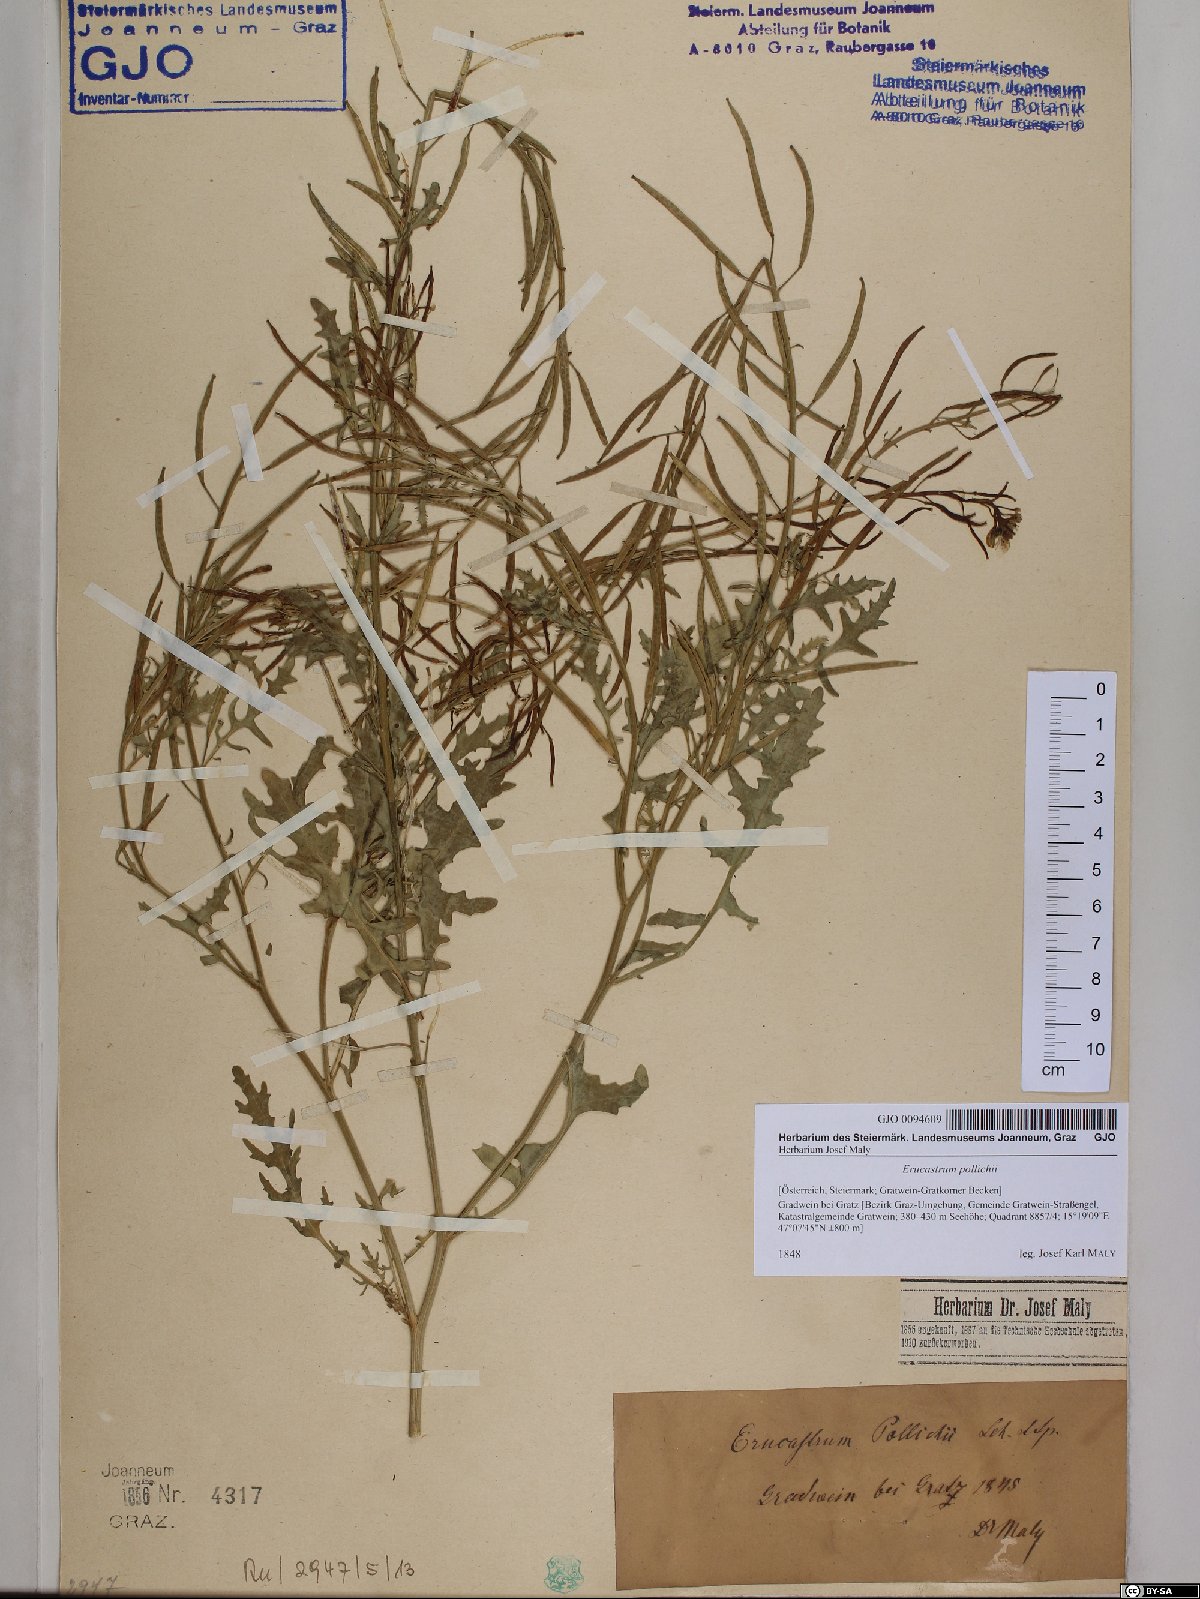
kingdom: Plantae
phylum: Tracheophyta
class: Magnoliopsida
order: Brassicales
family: Brassicaceae
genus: Erucastrum
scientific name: Erucastrum gallicum
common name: Hairy rocket
